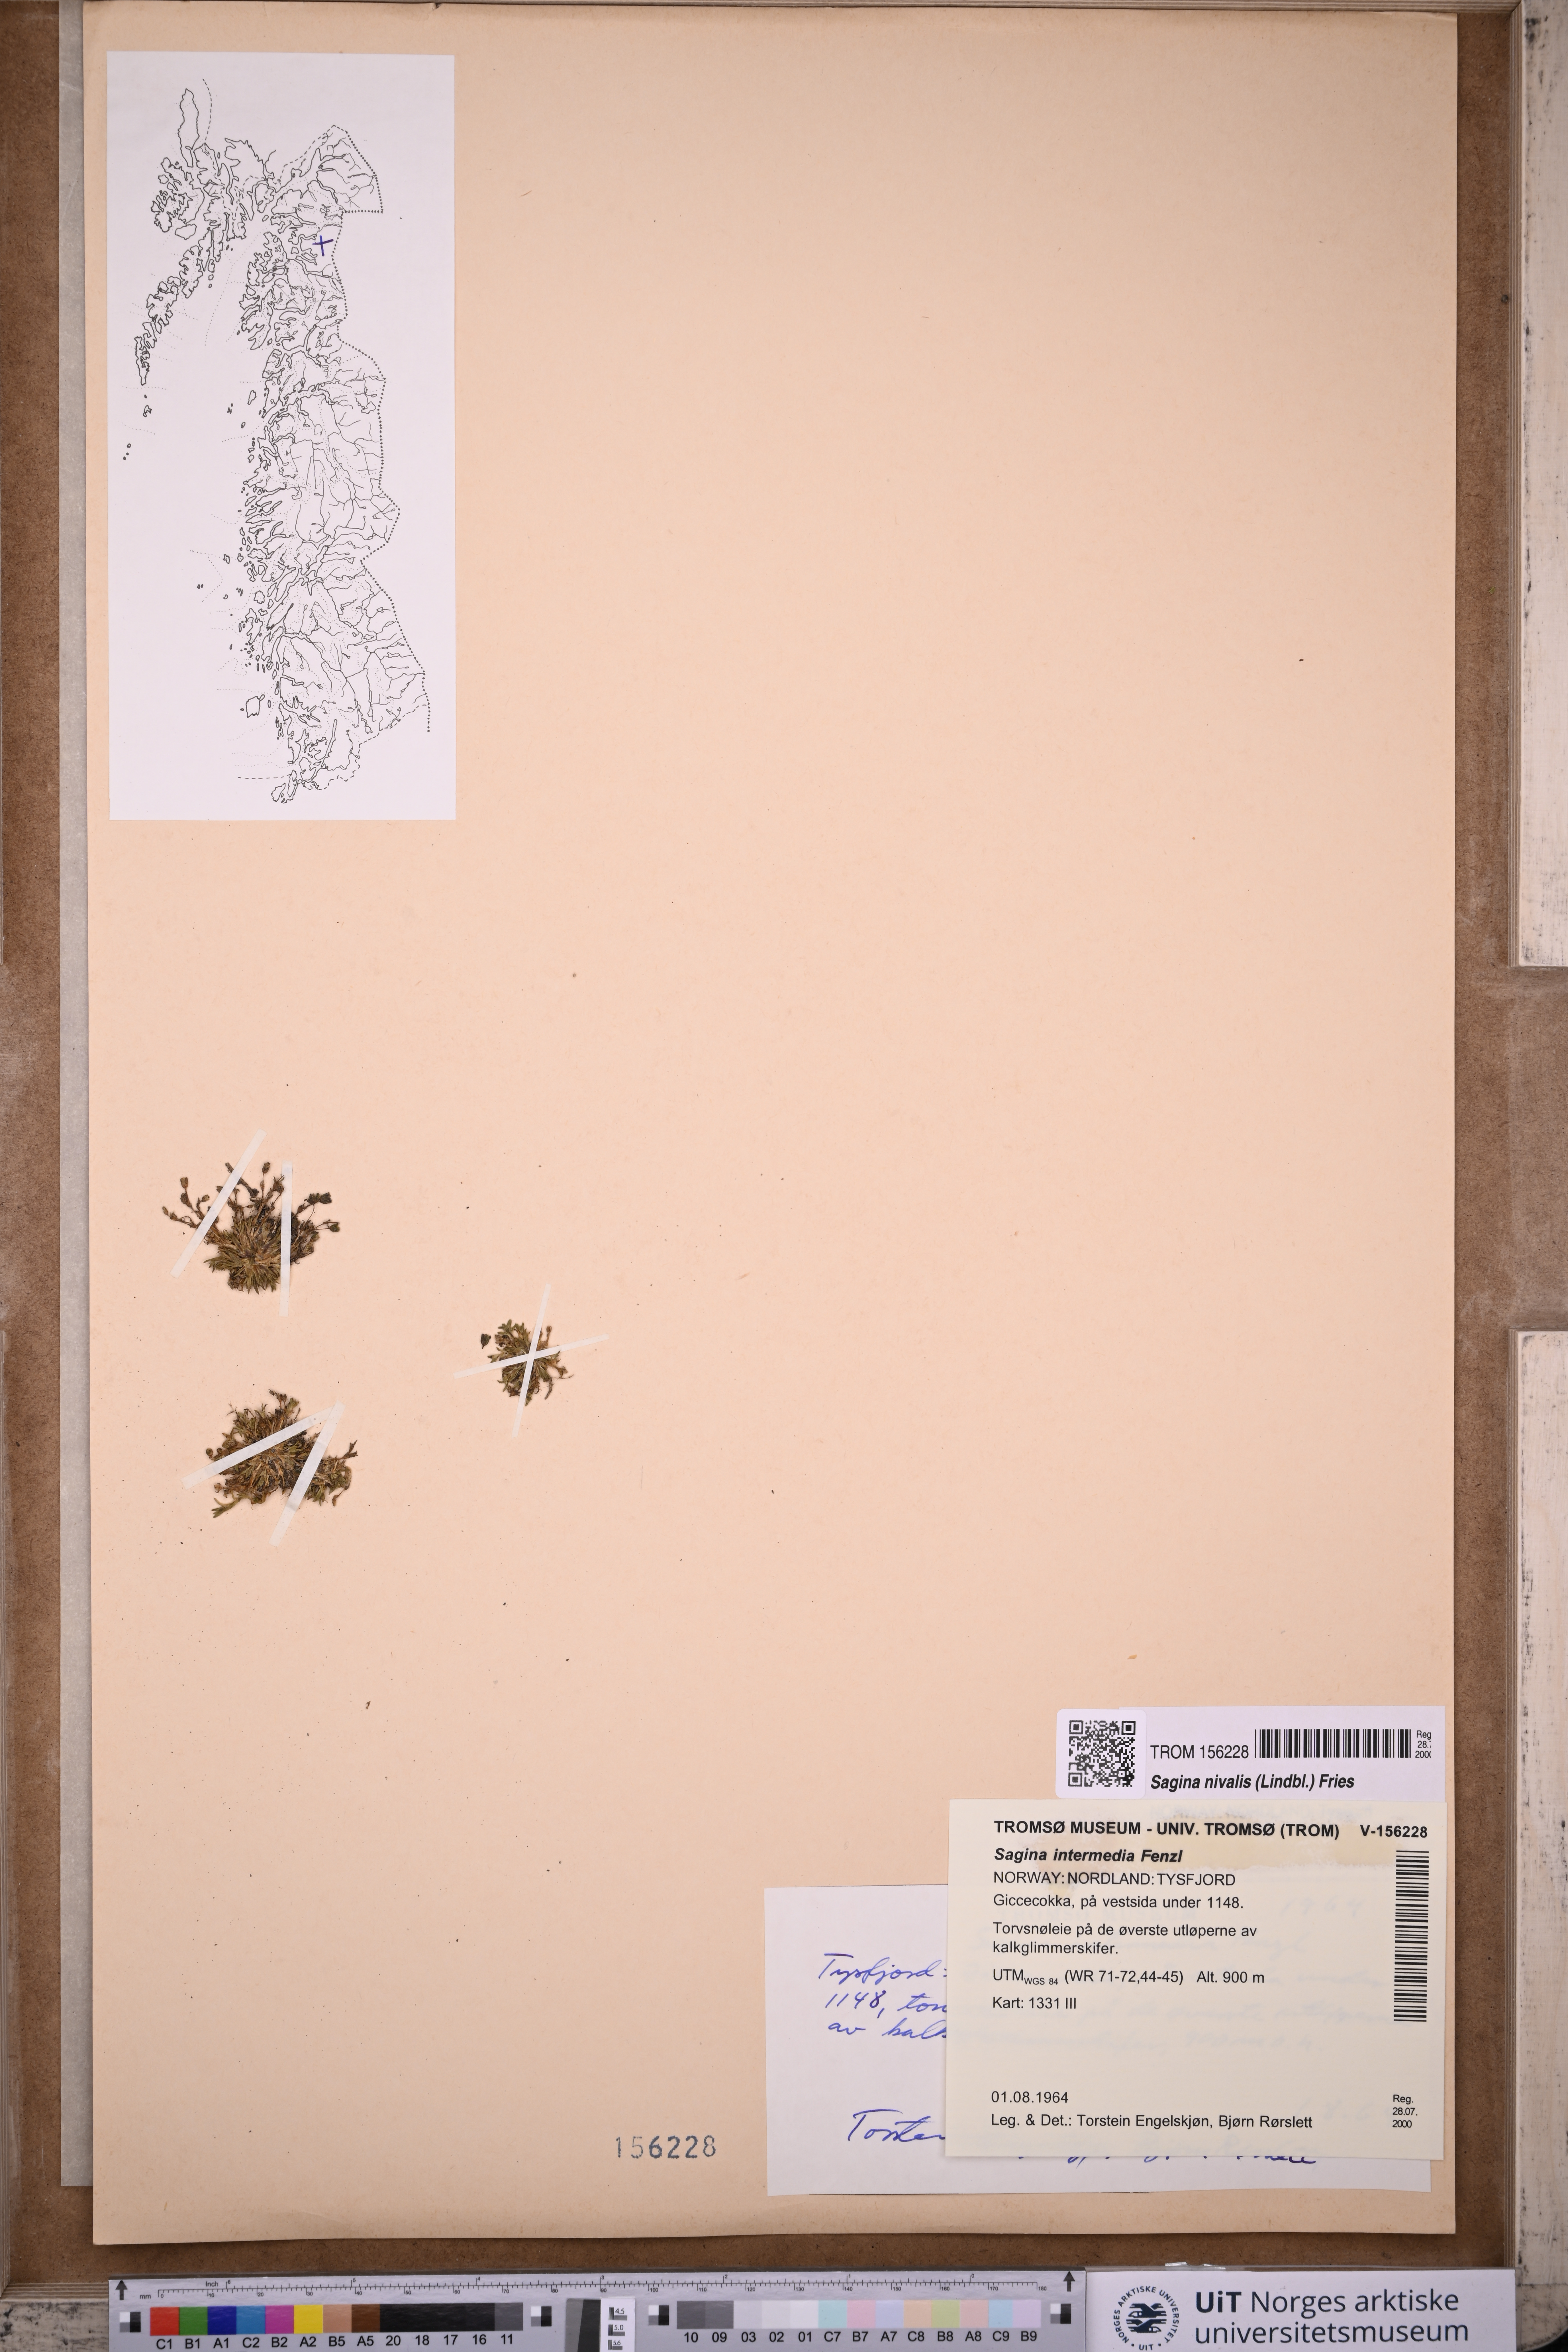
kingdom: Plantae
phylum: Tracheophyta
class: Magnoliopsida
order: Caryophyllales
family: Caryophyllaceae
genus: Sagina
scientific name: Sagina nivalis
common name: Snow pearlwort
